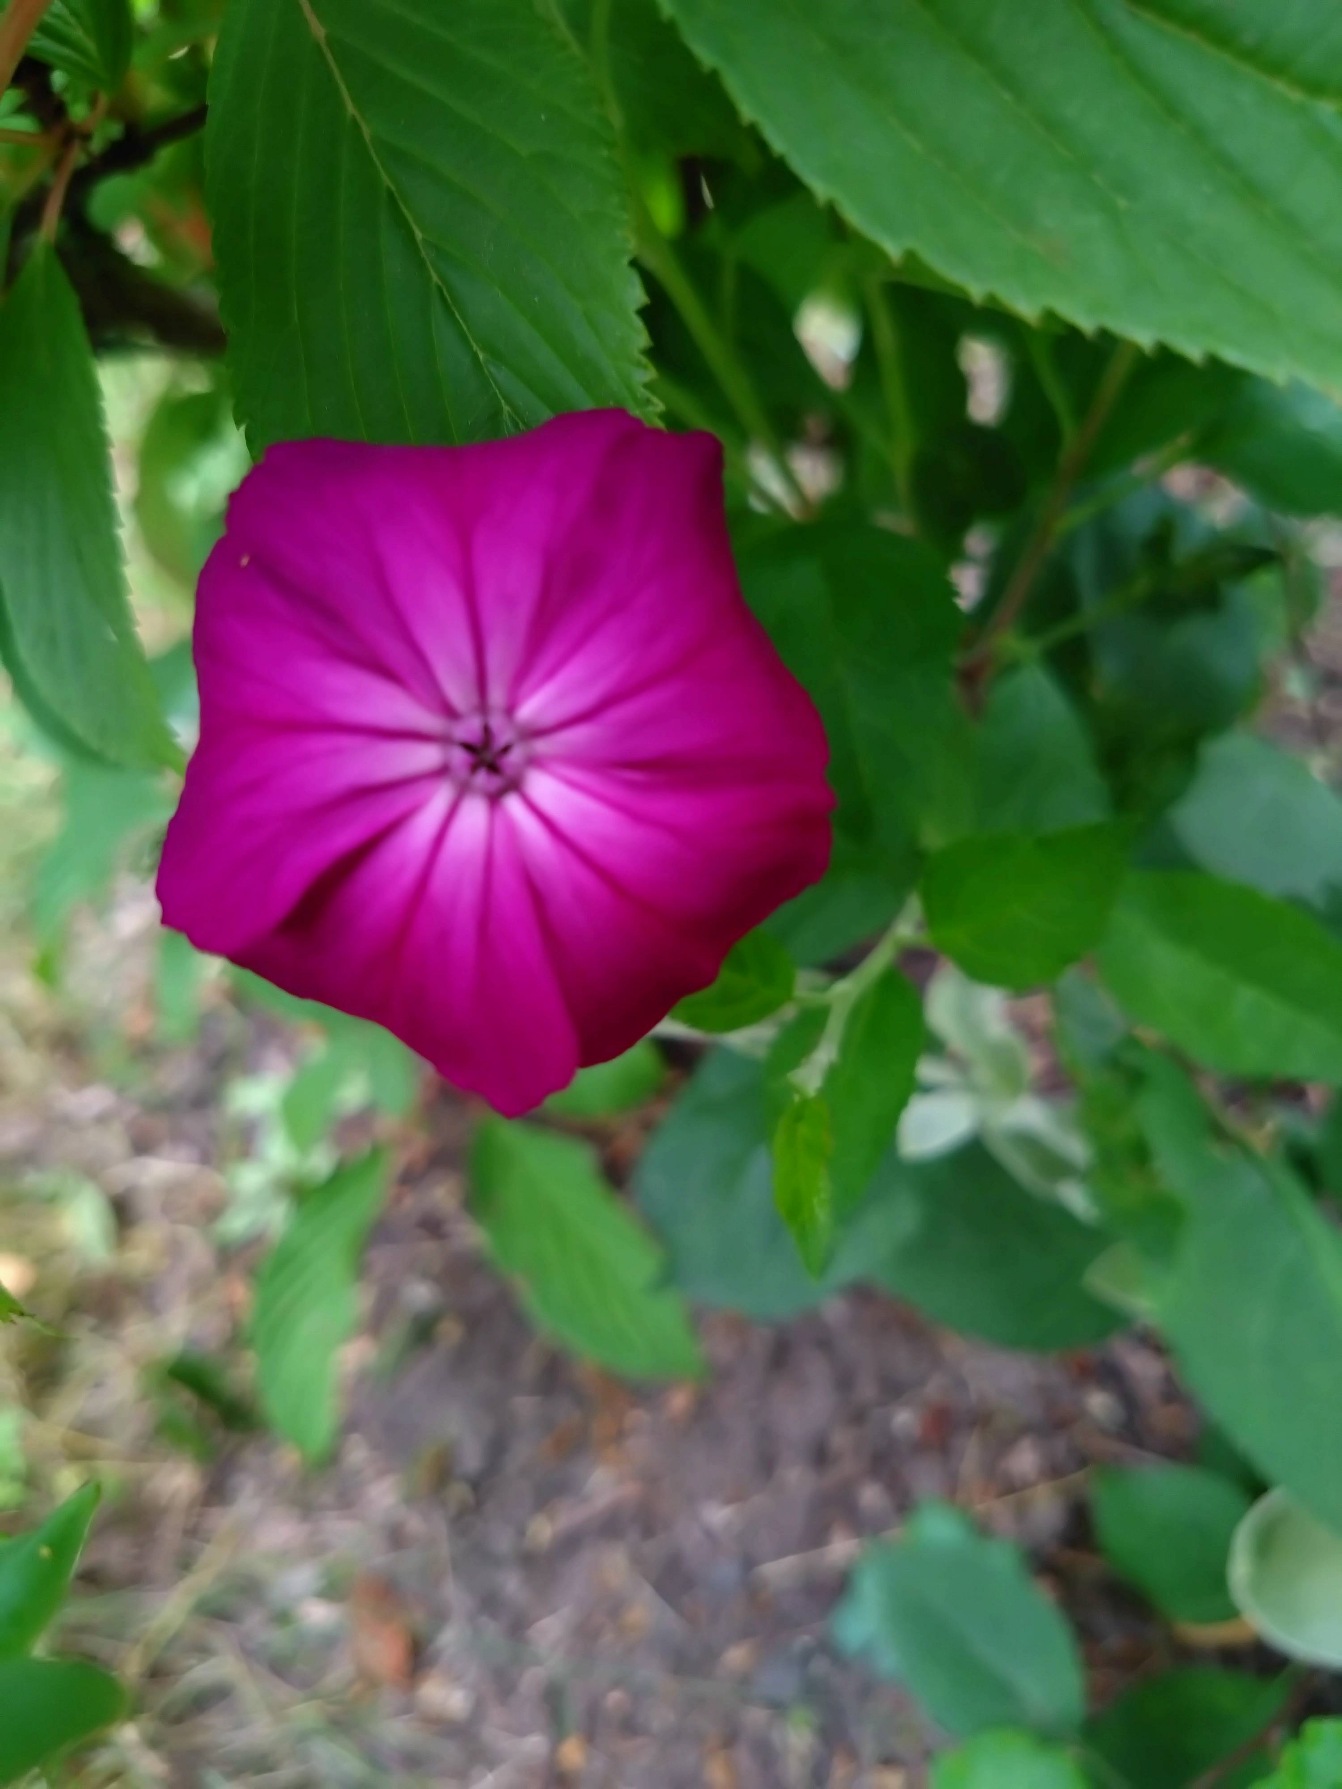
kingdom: Plantae
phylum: Tracheophyta
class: Magnoliopsida
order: Caryophyllales
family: Caryophyllaceae
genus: Silene
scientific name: Silene coronaria
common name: Fiksernellike
